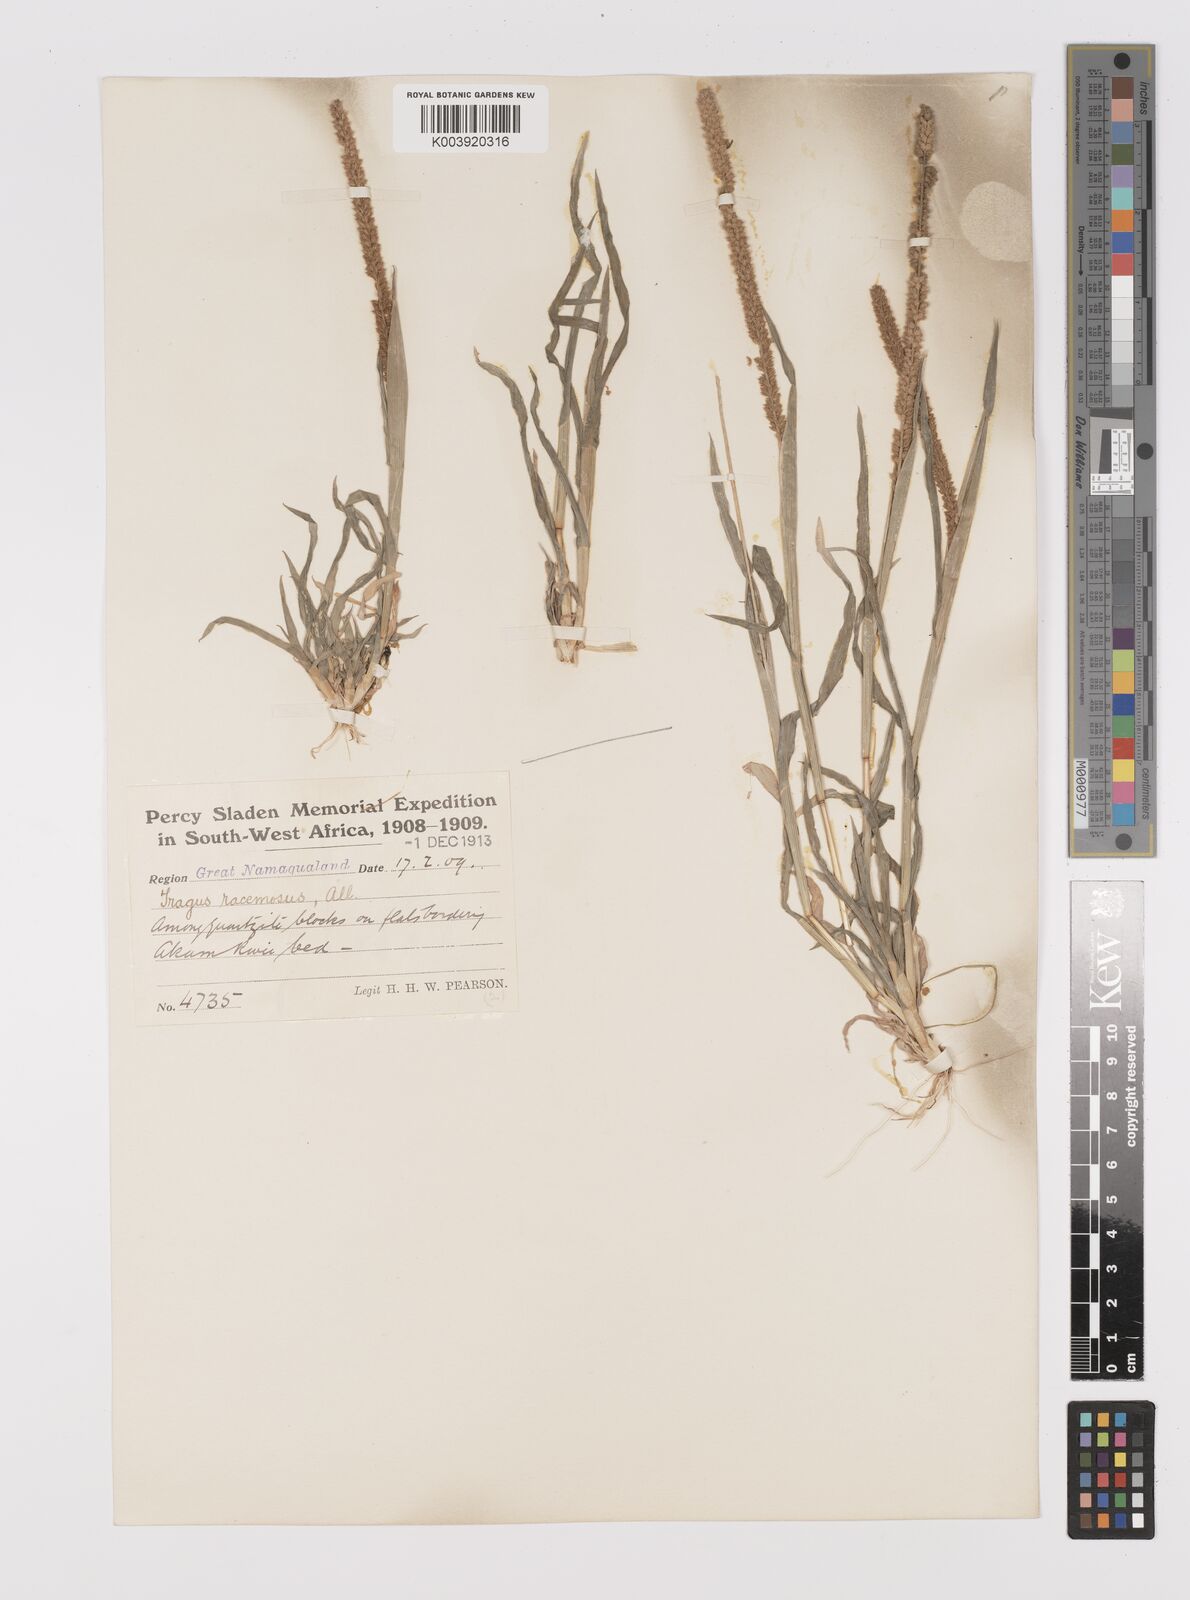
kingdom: Plantae
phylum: Tracheophyta
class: Liliopsida
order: Poales
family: Poaceae
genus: Tragus
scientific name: Tragus berteronianus
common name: African bur-grass
